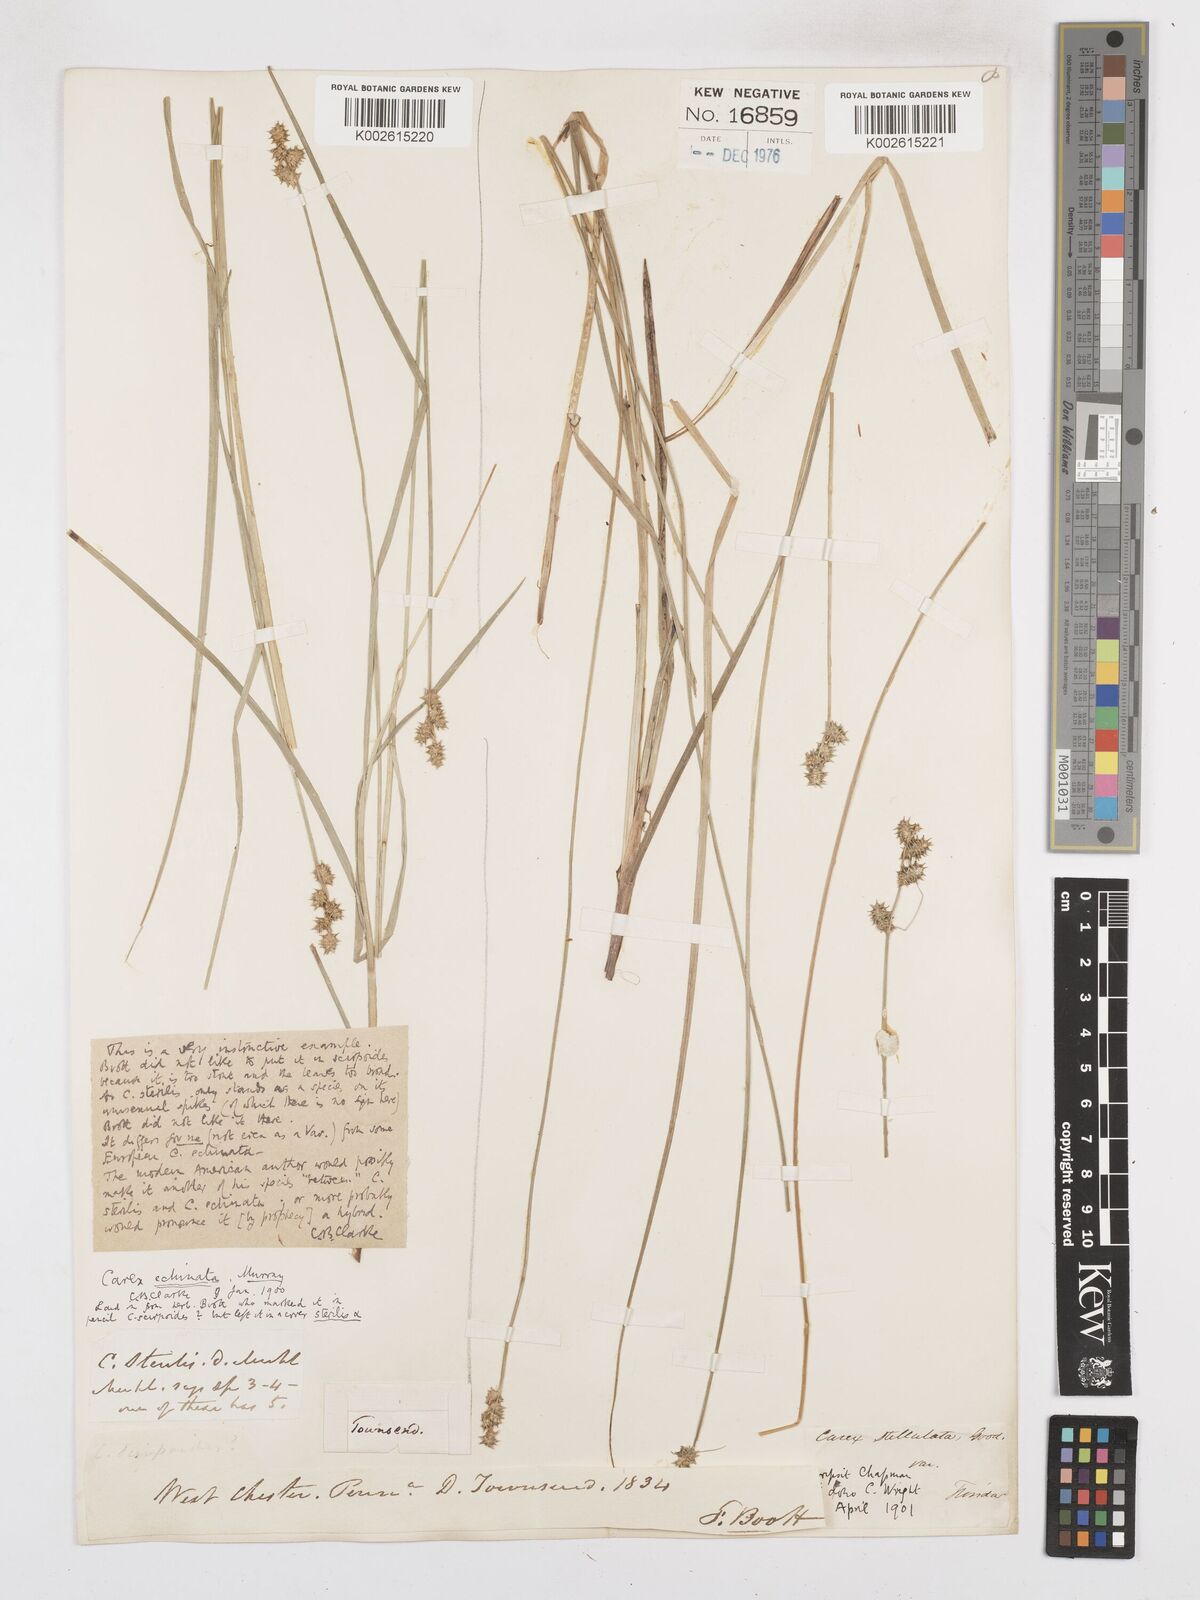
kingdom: Plantae
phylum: Tracheophyta
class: Liliopsida
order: Poales
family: Cyperaceae
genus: Carex
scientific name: Carex echinata
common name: Star sedge
